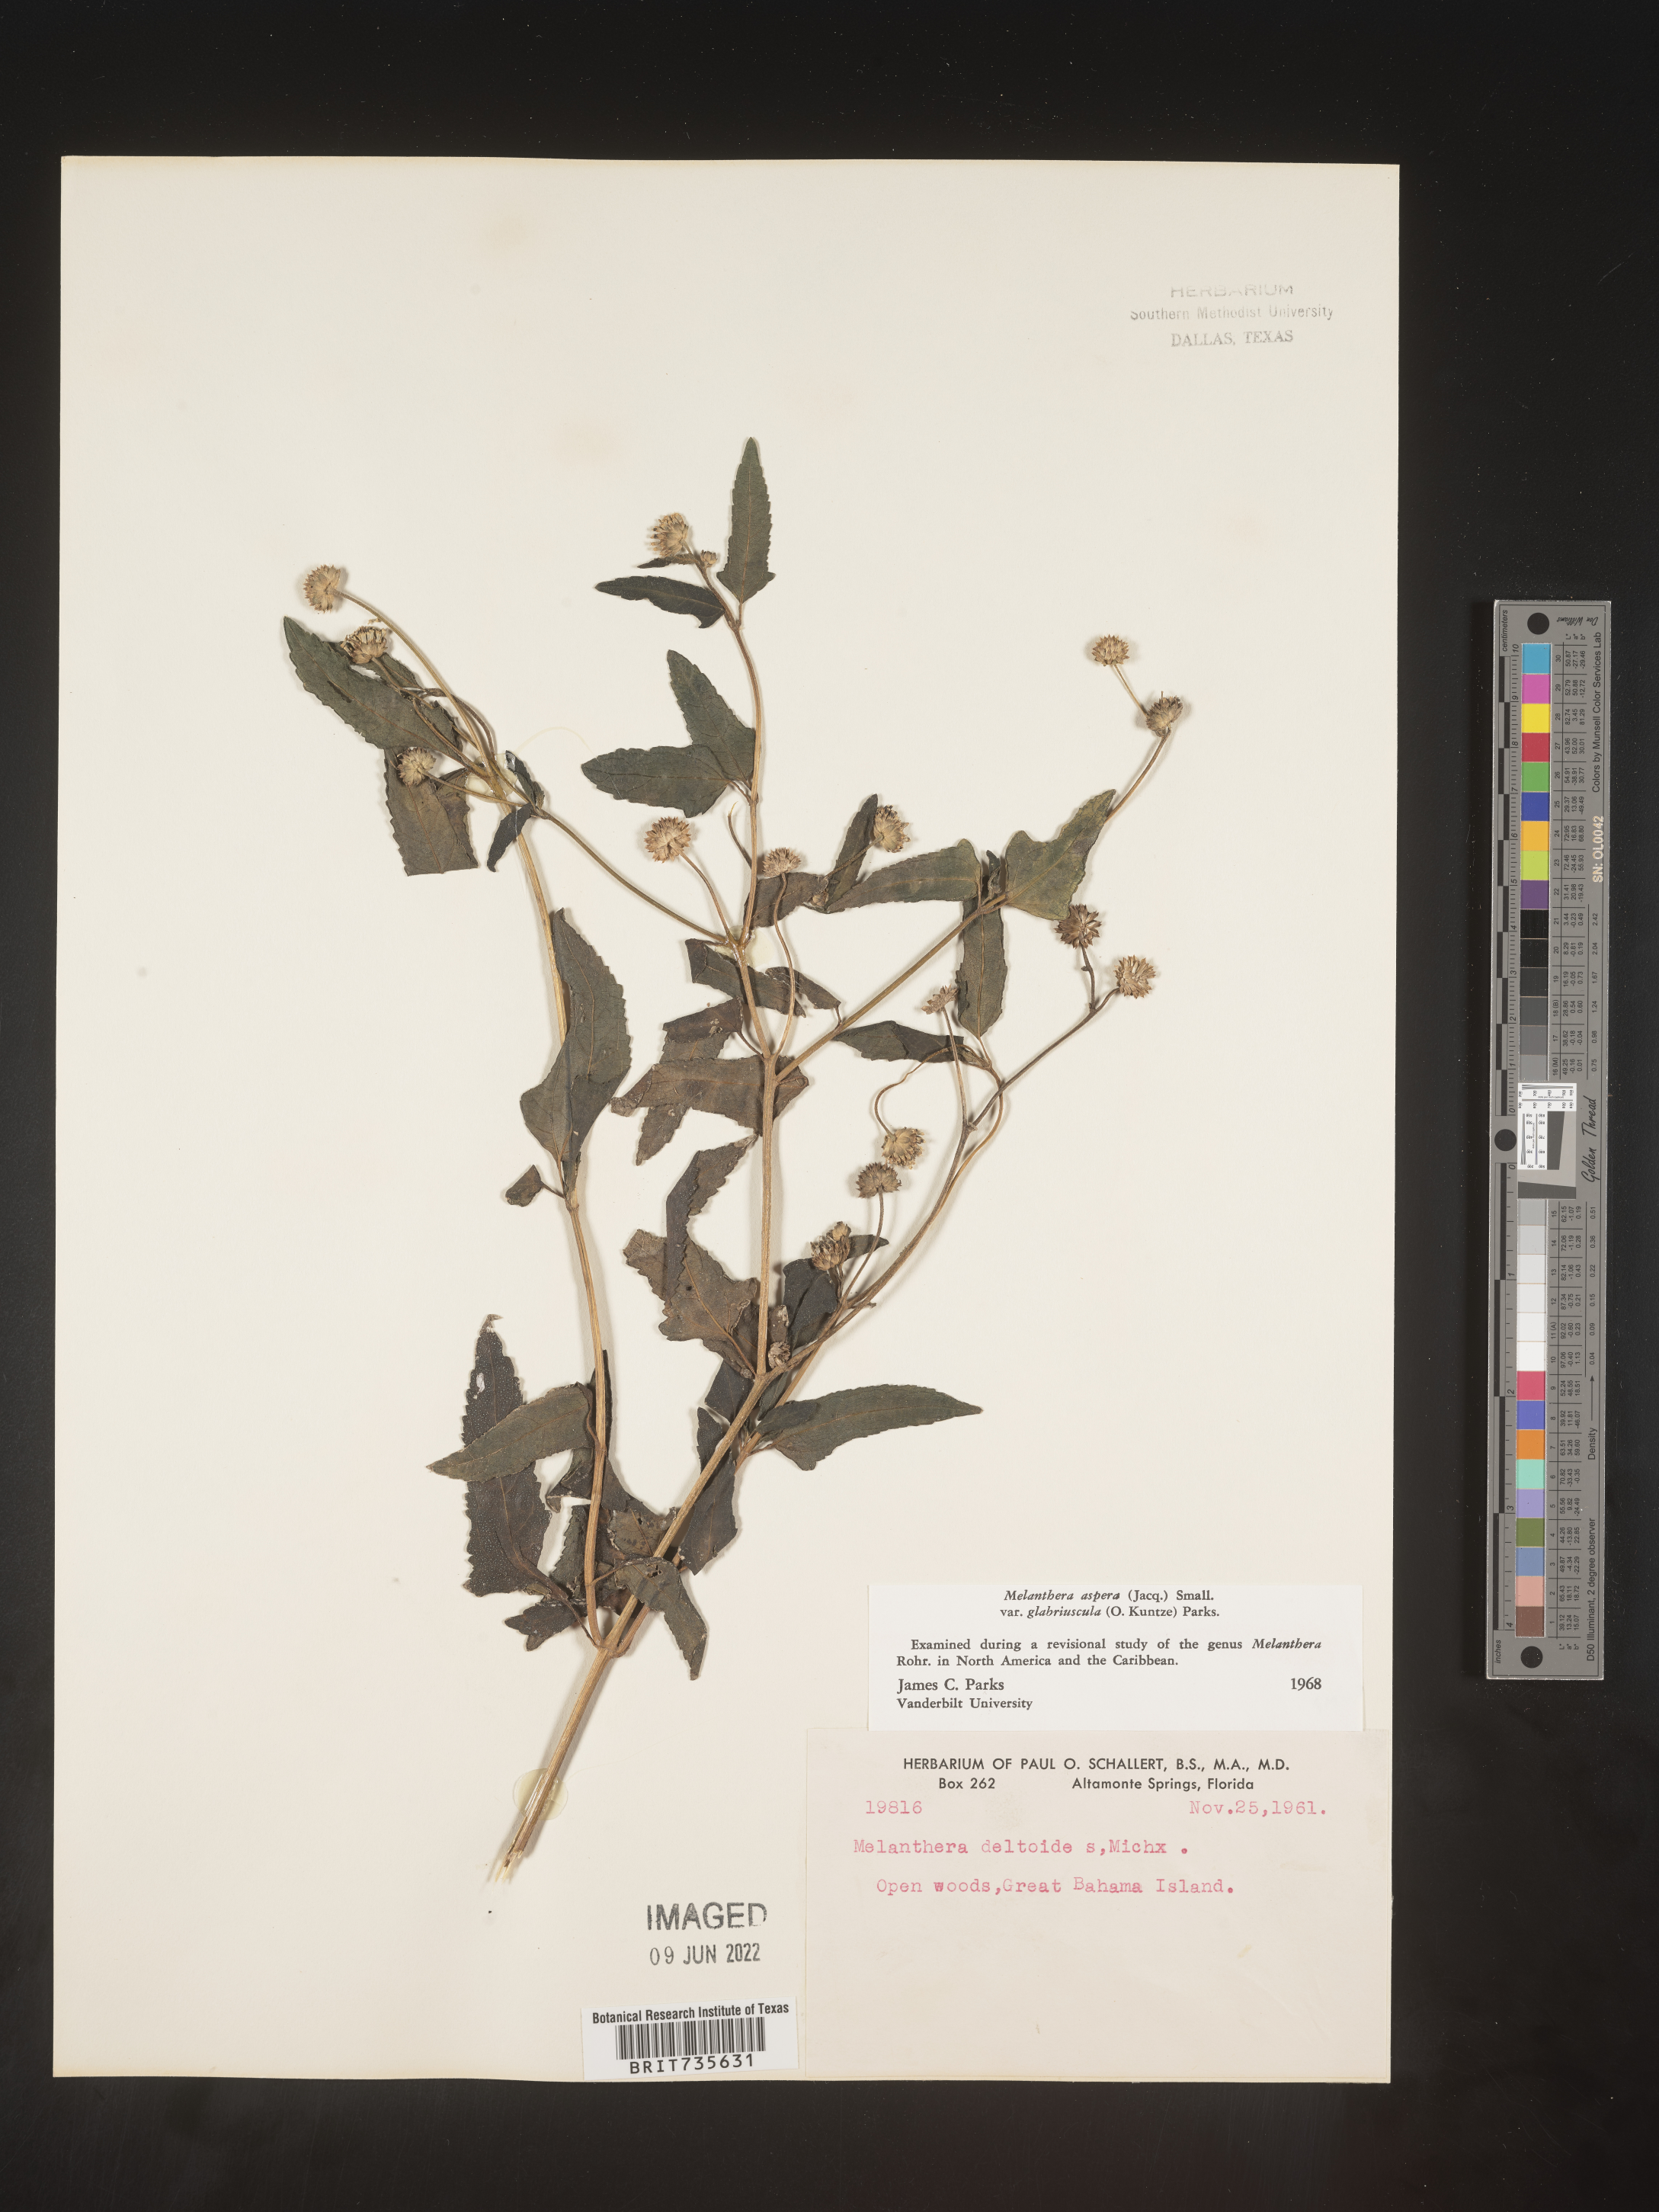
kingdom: Plantae
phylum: Tracheophyta
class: Magnoliopsida
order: Asterales
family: Asteraceae
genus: Melanthera
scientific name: Melanthera
